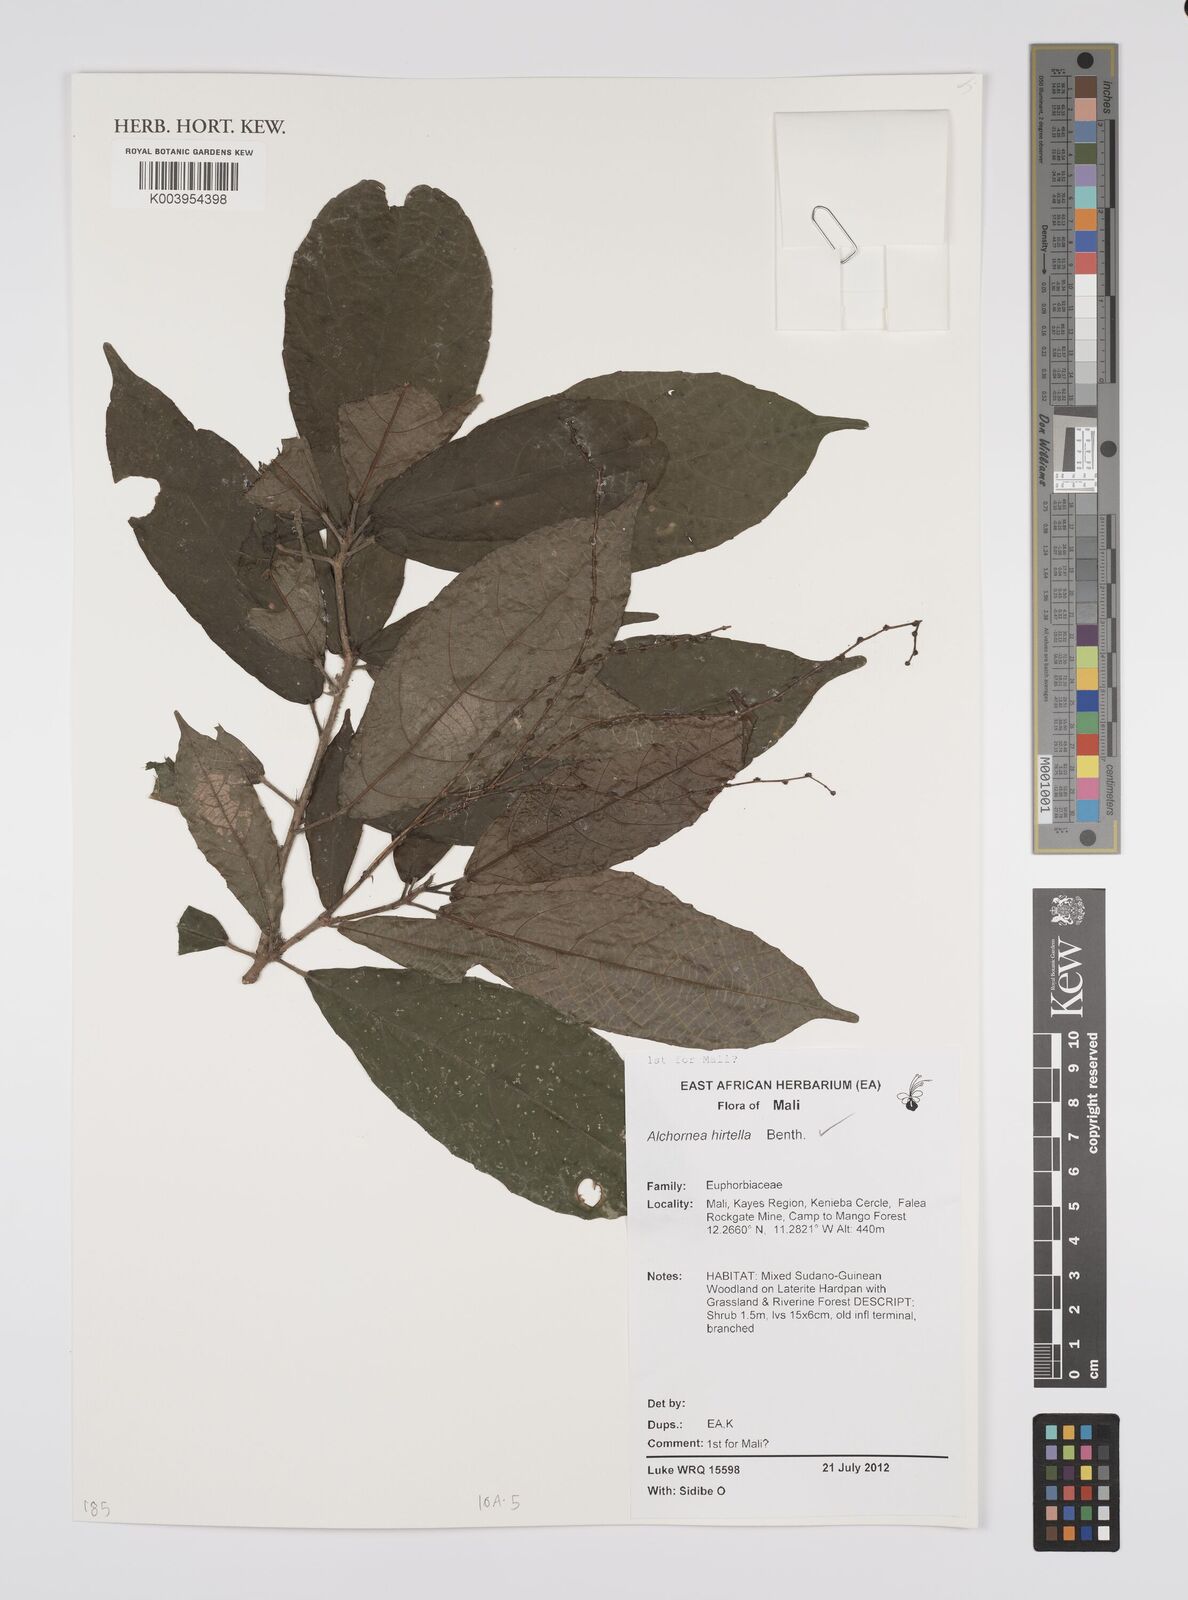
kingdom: Plantae
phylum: Tracheophyta
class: Magnoliopsida
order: Malpighiales
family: Euphorbiaceae
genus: Alchornea
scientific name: Alchornea hirtella
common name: Forest bead-string
